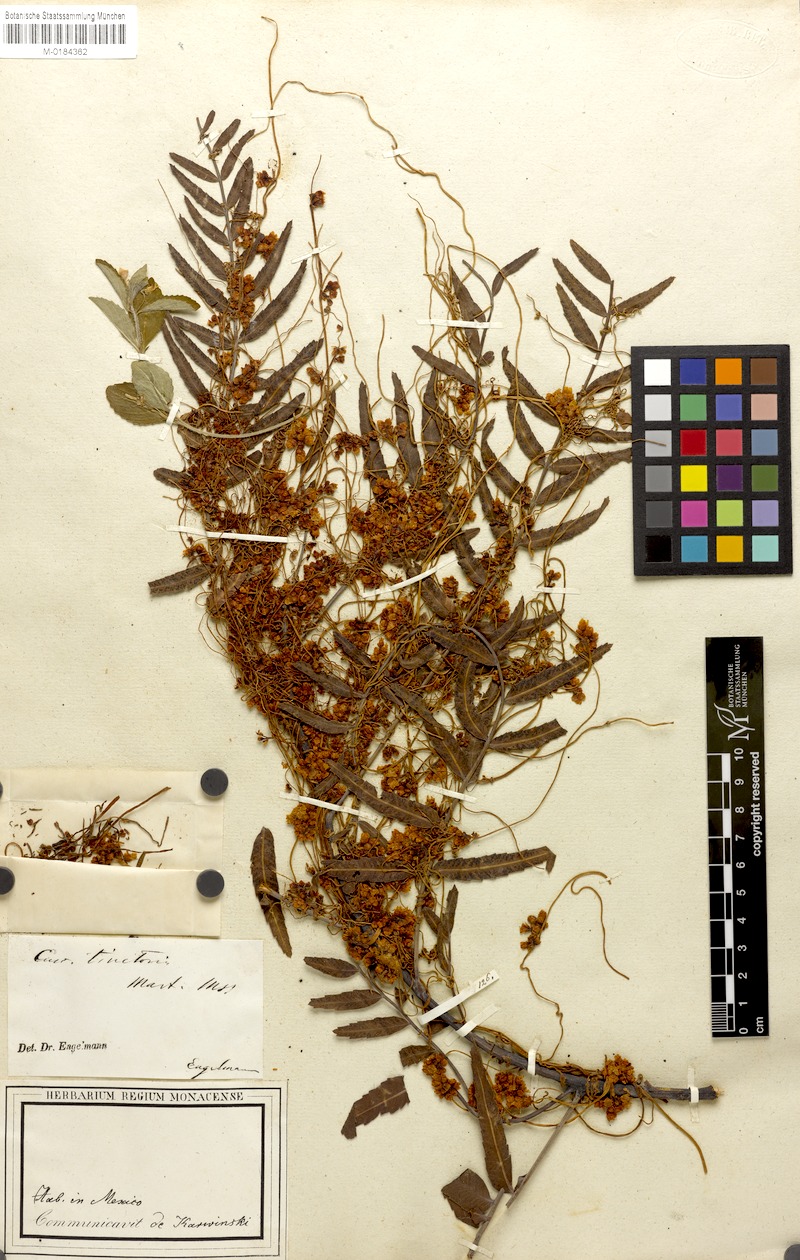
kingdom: Plantae
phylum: Tracheophyta
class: Magnoliopsida
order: Solanales
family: Convolvulaceae
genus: Cuscuta
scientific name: Cuscuta tinctoria
